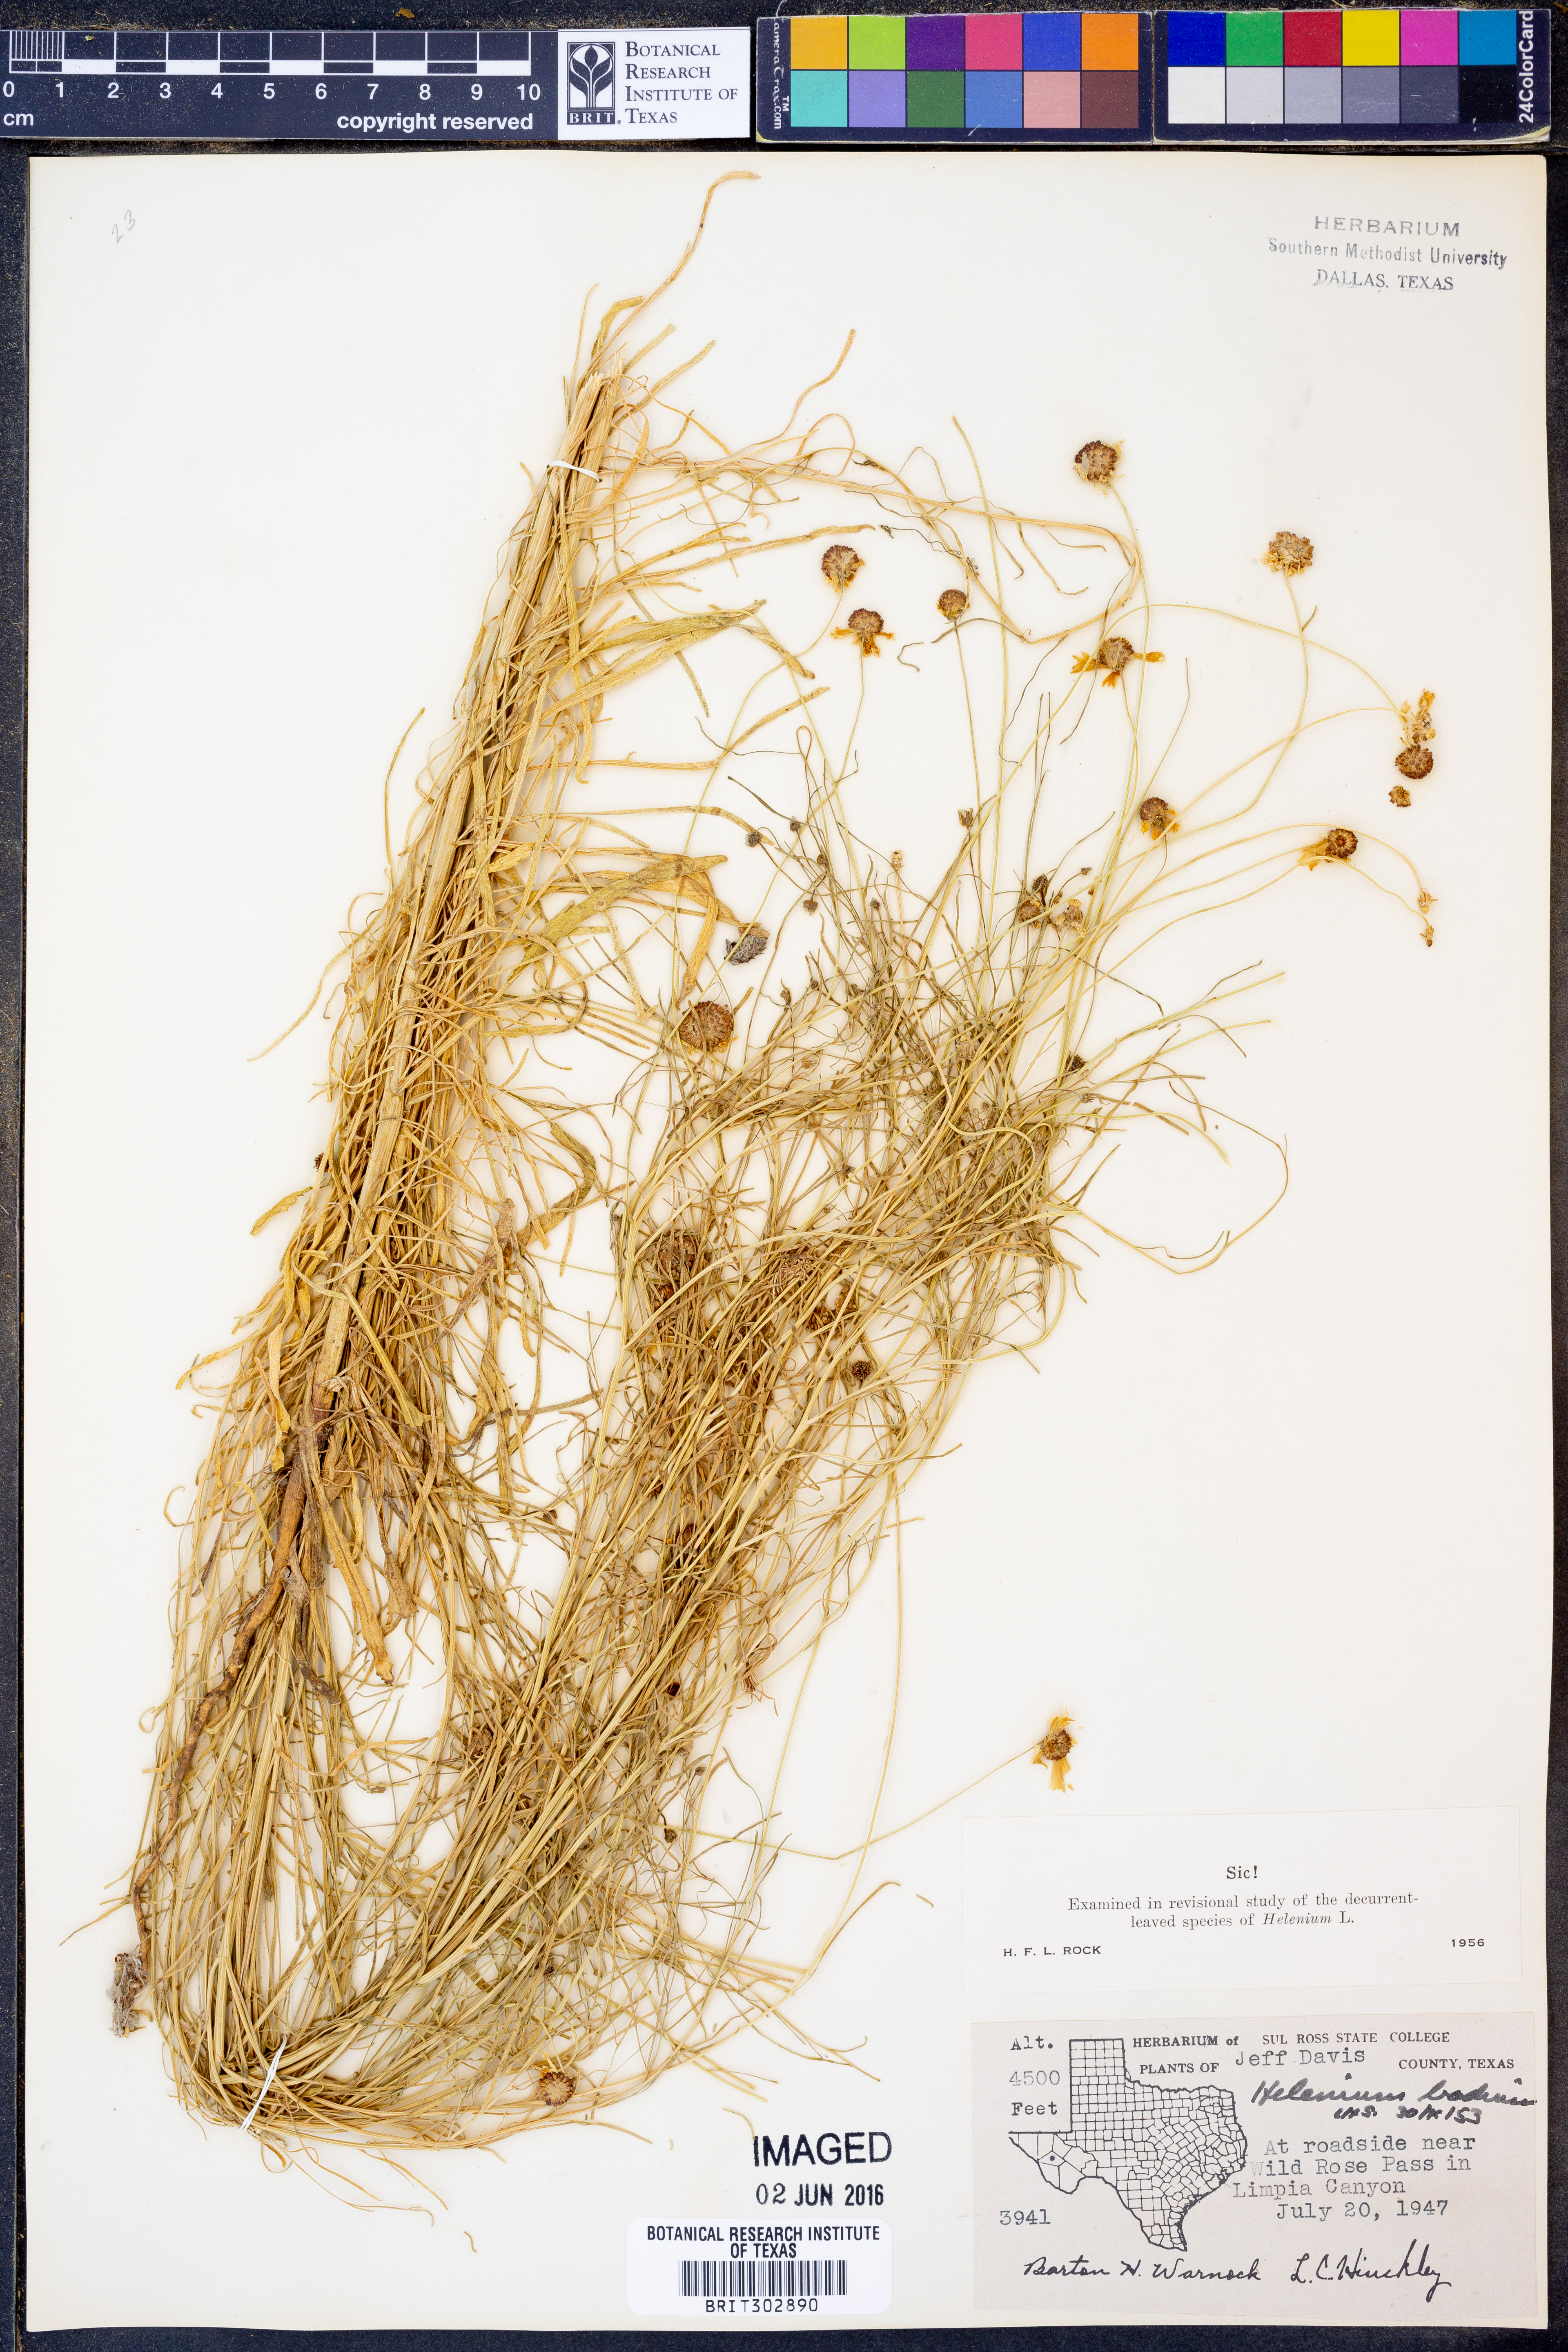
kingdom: Plantae
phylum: Tracheophyta
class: Magnoliopsida
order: Asterales
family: Asteraceae
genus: Helenium
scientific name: Helenium amarum
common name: Bitter sneezeweed
